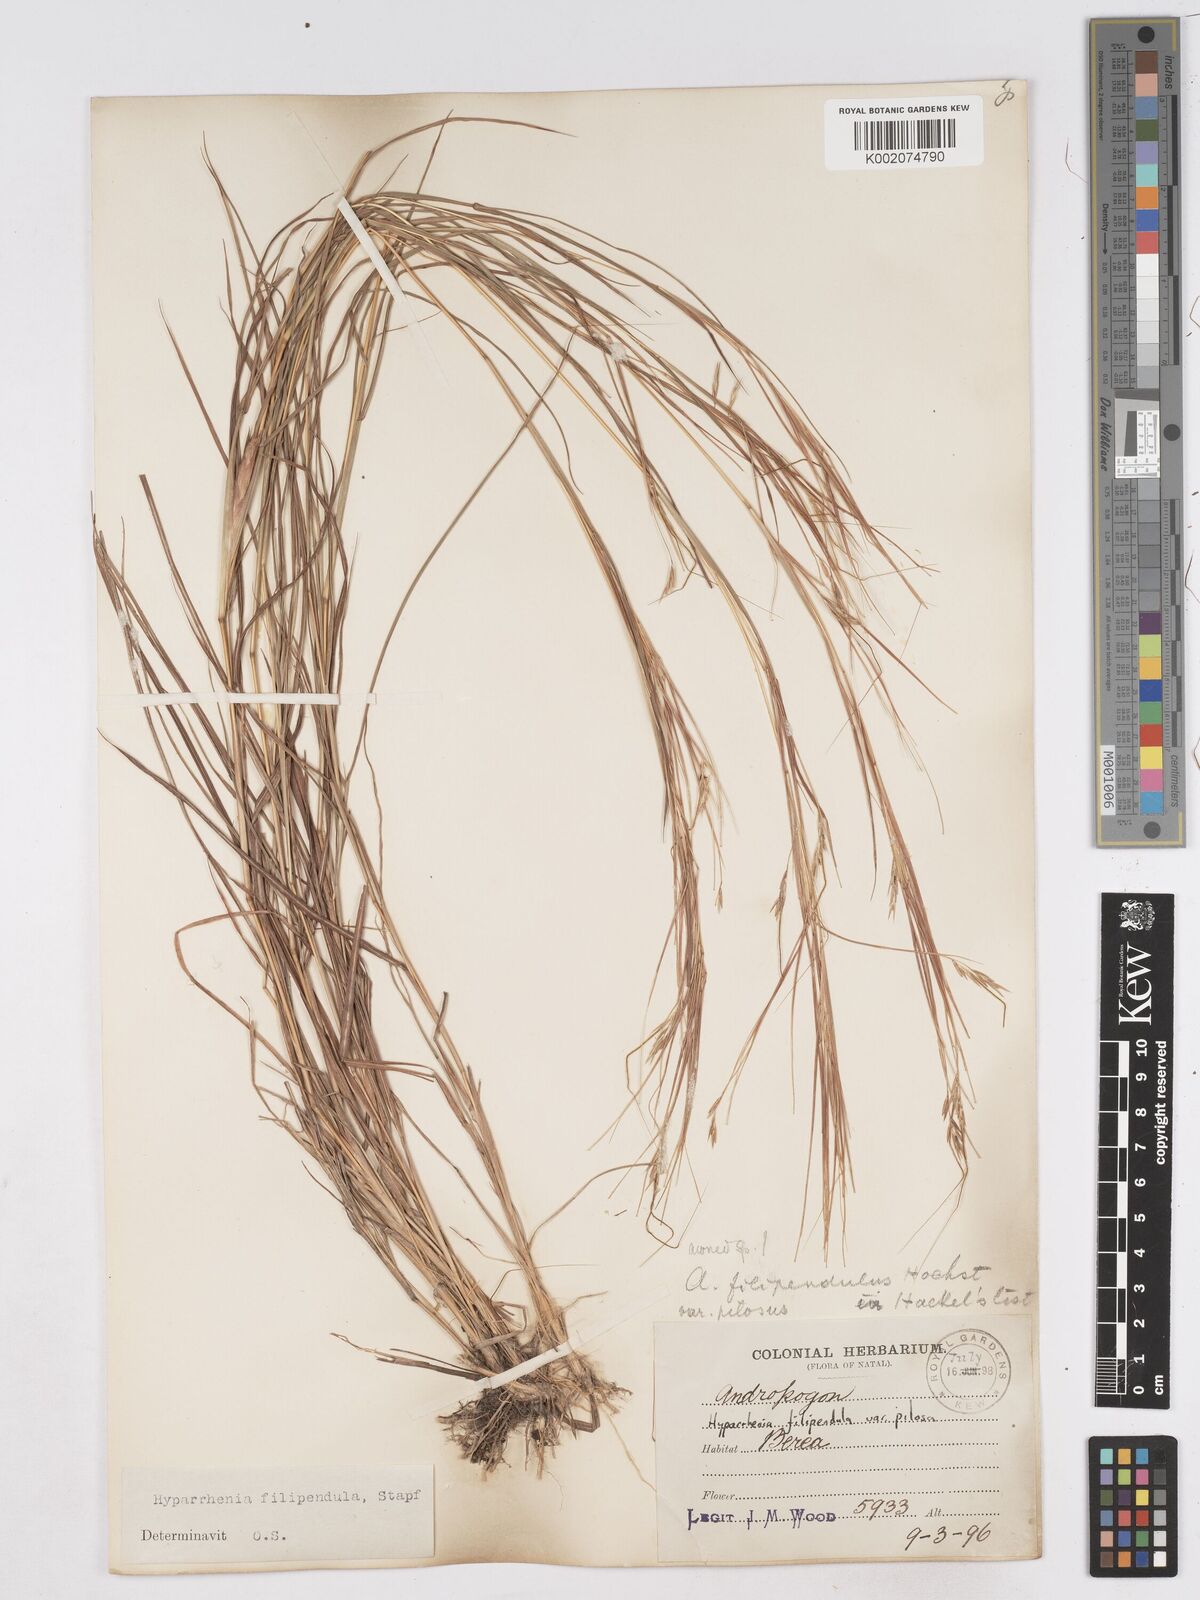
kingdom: Plantae
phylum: Tracheophyta
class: Liliopsida
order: Poales
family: Poaceae
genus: Hyparrhenia
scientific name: Hyparrhenia filipendula
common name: Tambookie grass
